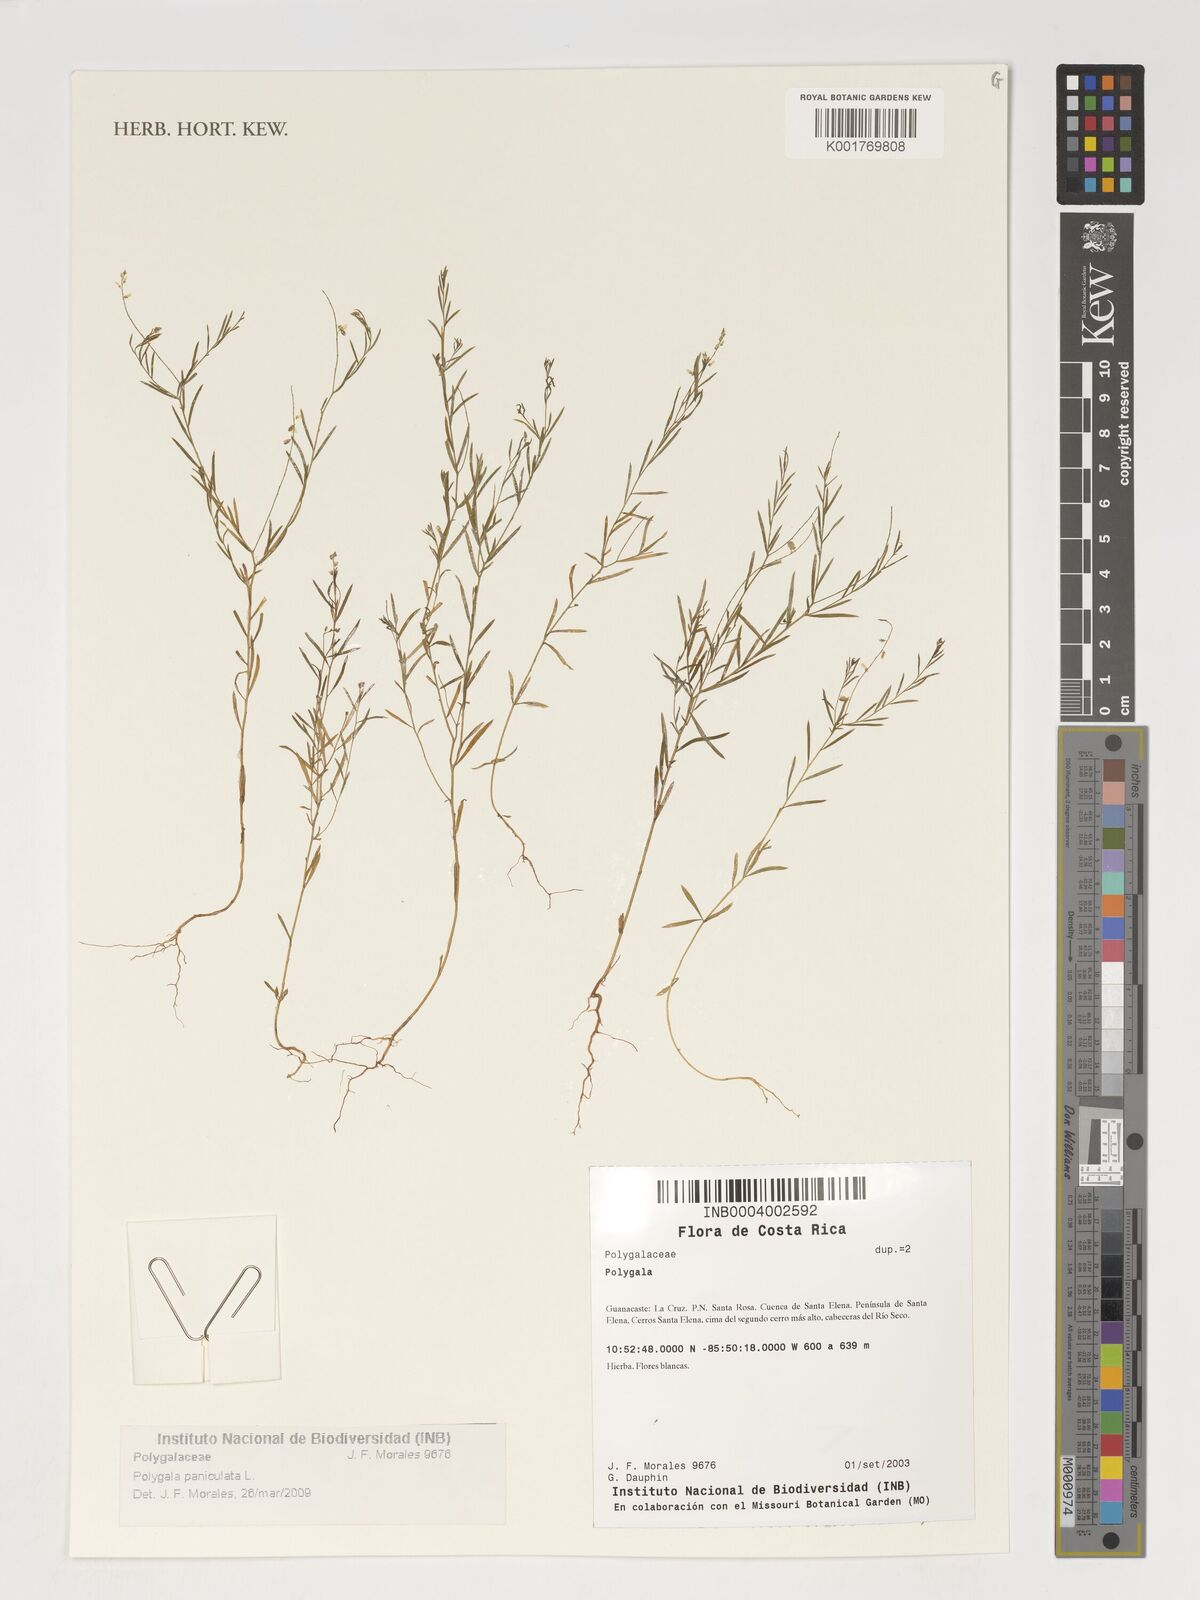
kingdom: Plantae
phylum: Tracheophyta
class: Magnoliopsida
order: Fabales
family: Polygalaceae
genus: Polygala
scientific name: Polygala paniculata
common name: Orosne
